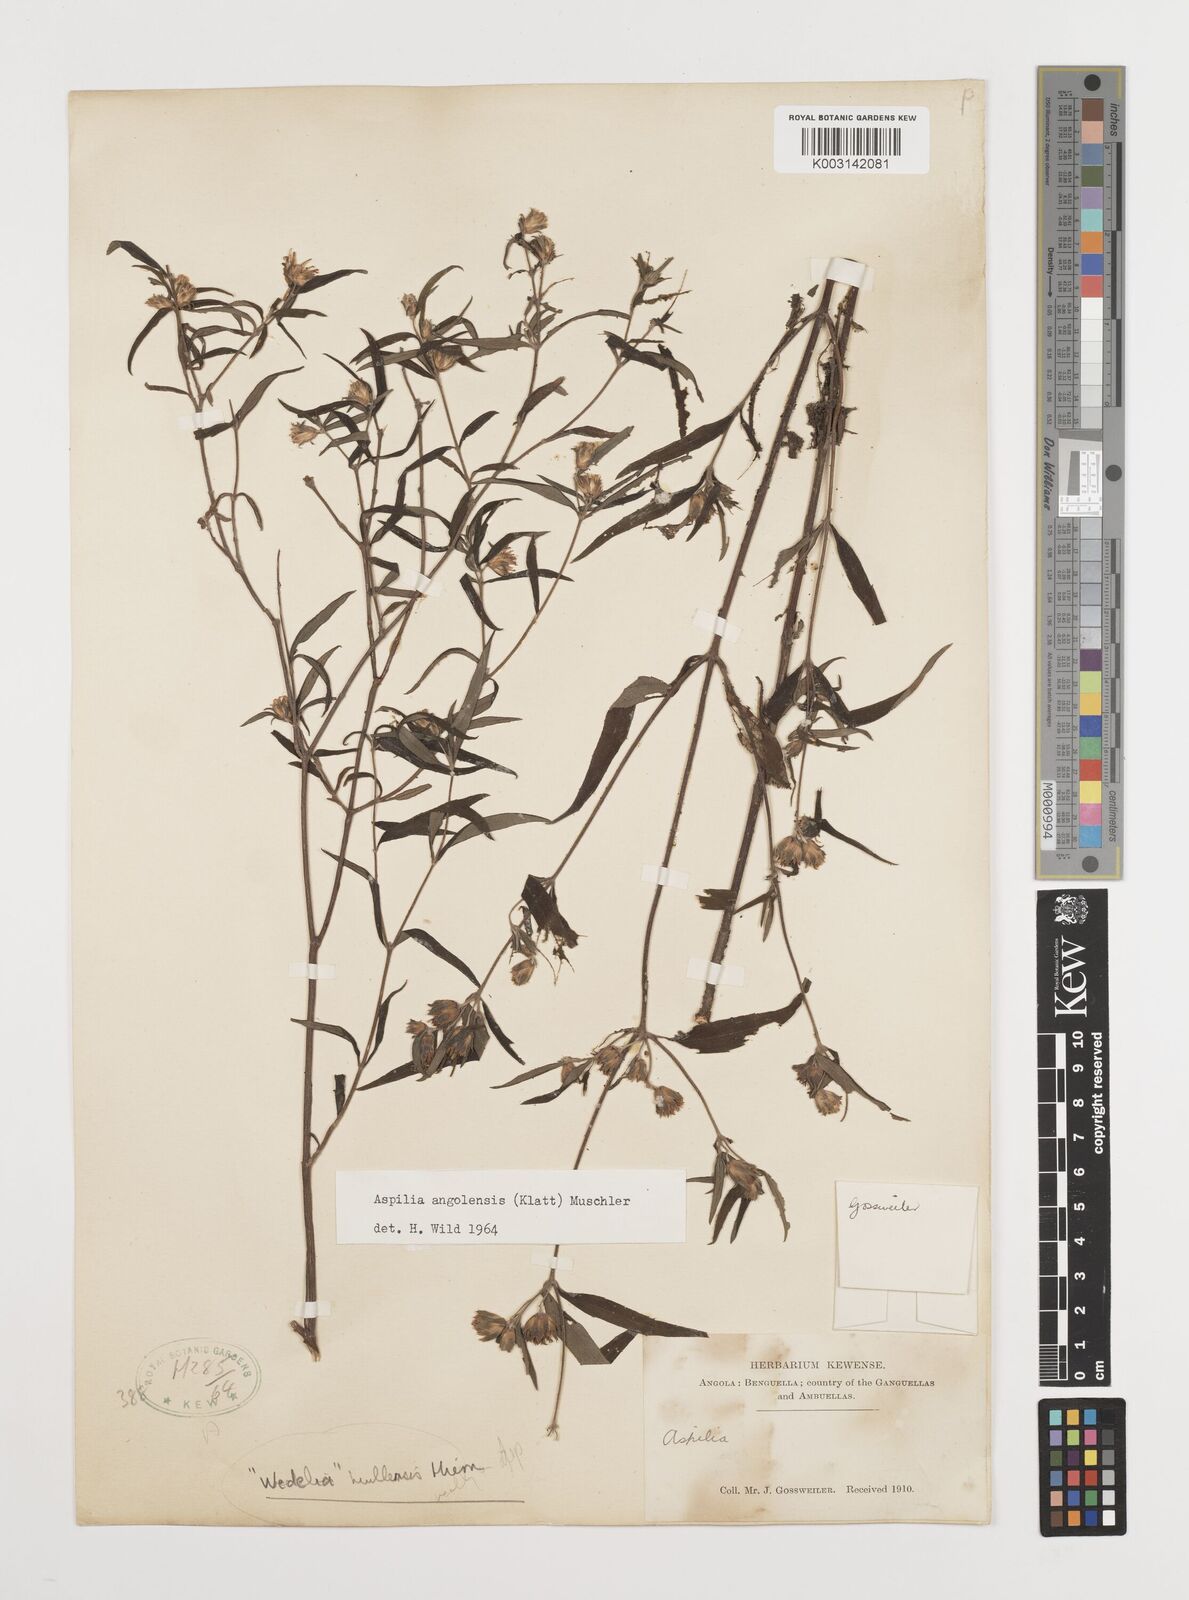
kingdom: Plantae
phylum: Tracheophyta
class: Magnoliopsida
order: Asterales
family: Asteraceae
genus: Aspilia
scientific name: Aspilia angolensis
